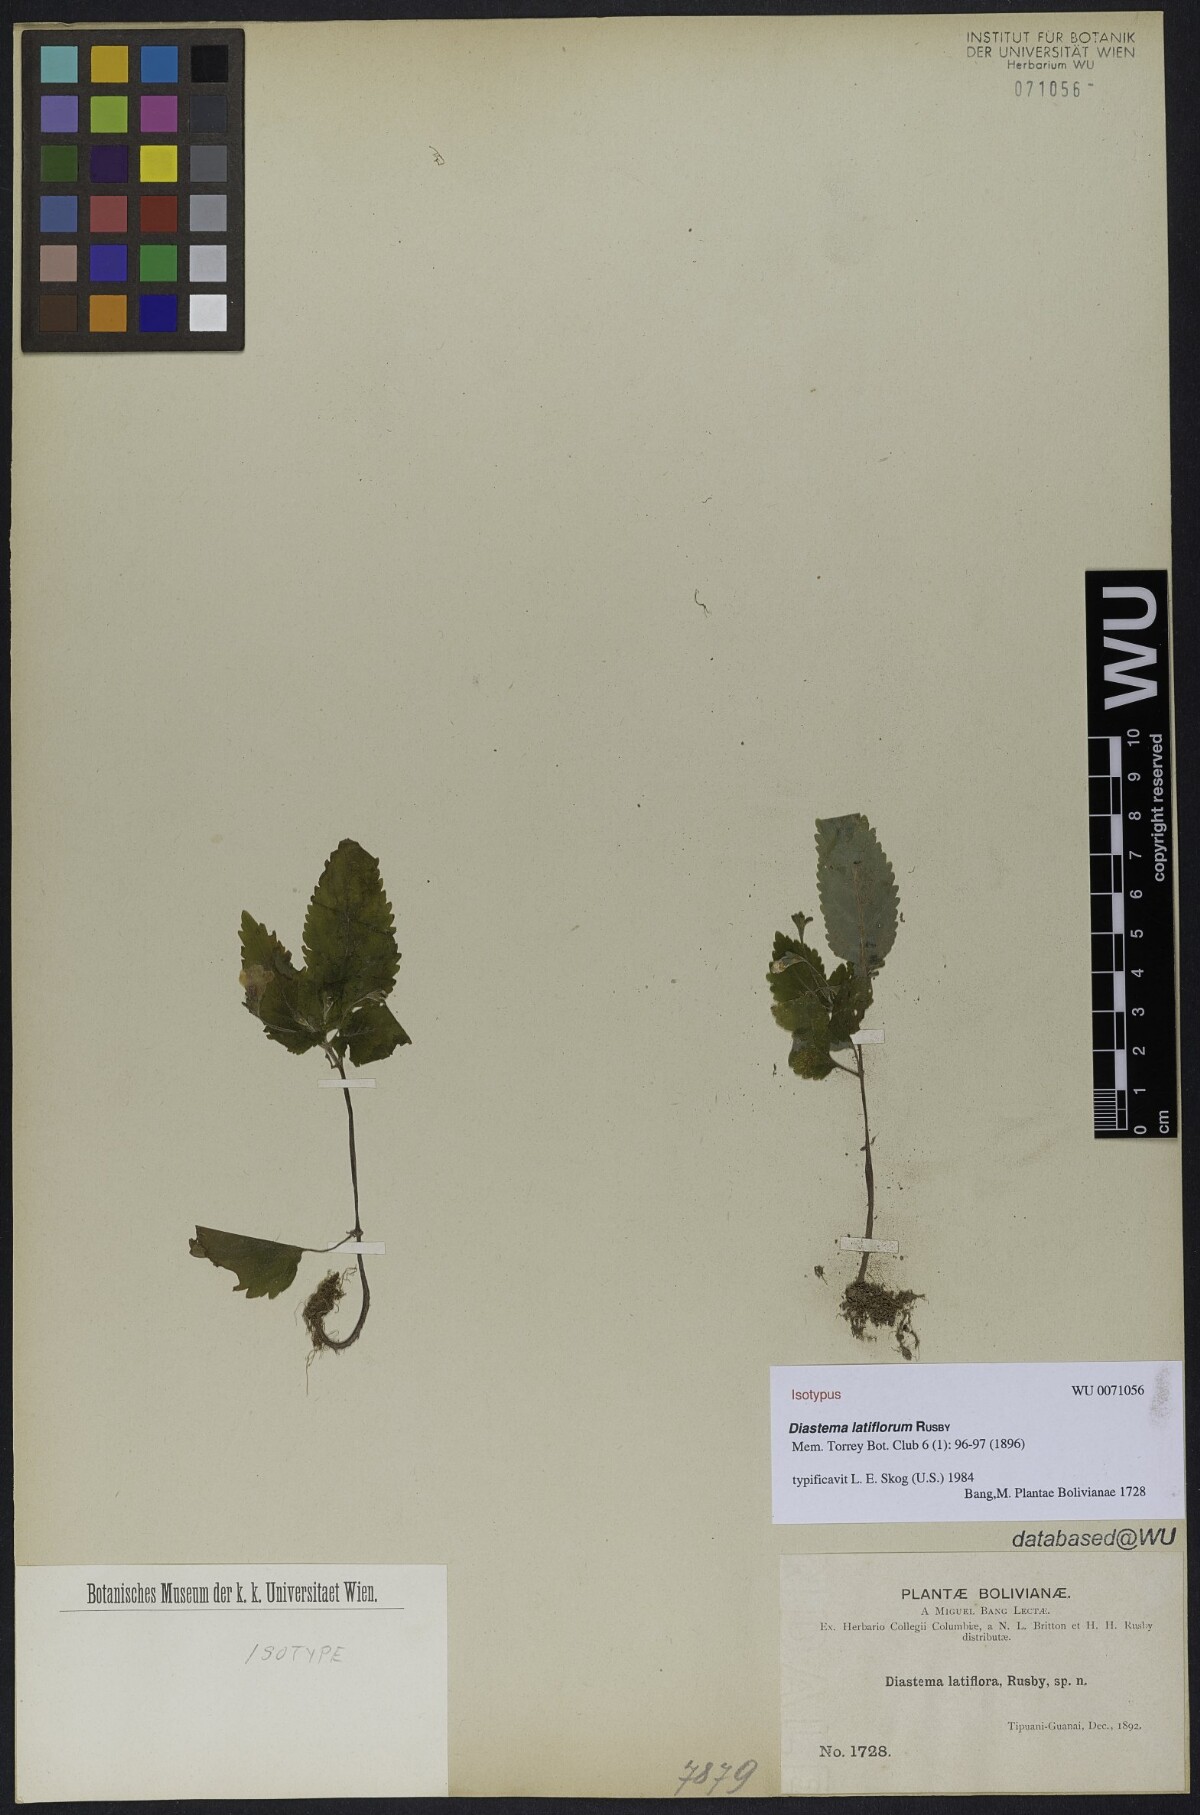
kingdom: Plantae
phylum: Tracheophyta
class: Magnoliopsida
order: Lamiales
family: Gesneriaceae
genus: Diastema
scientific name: Diastema latiflorum
